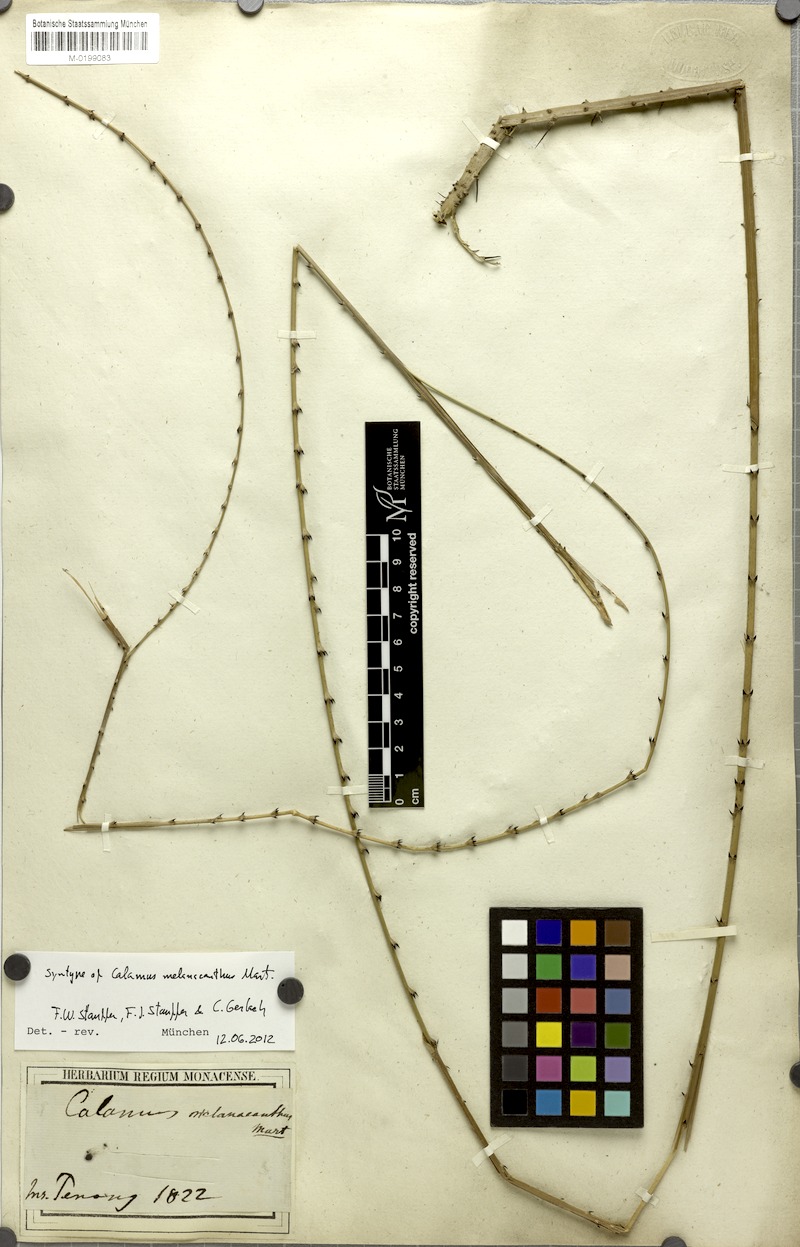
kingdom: Plantae
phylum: Tracheophyta
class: Liliopsida
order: Arecales
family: Arecaceae
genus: Calamus
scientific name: Calamus melanacanthus
